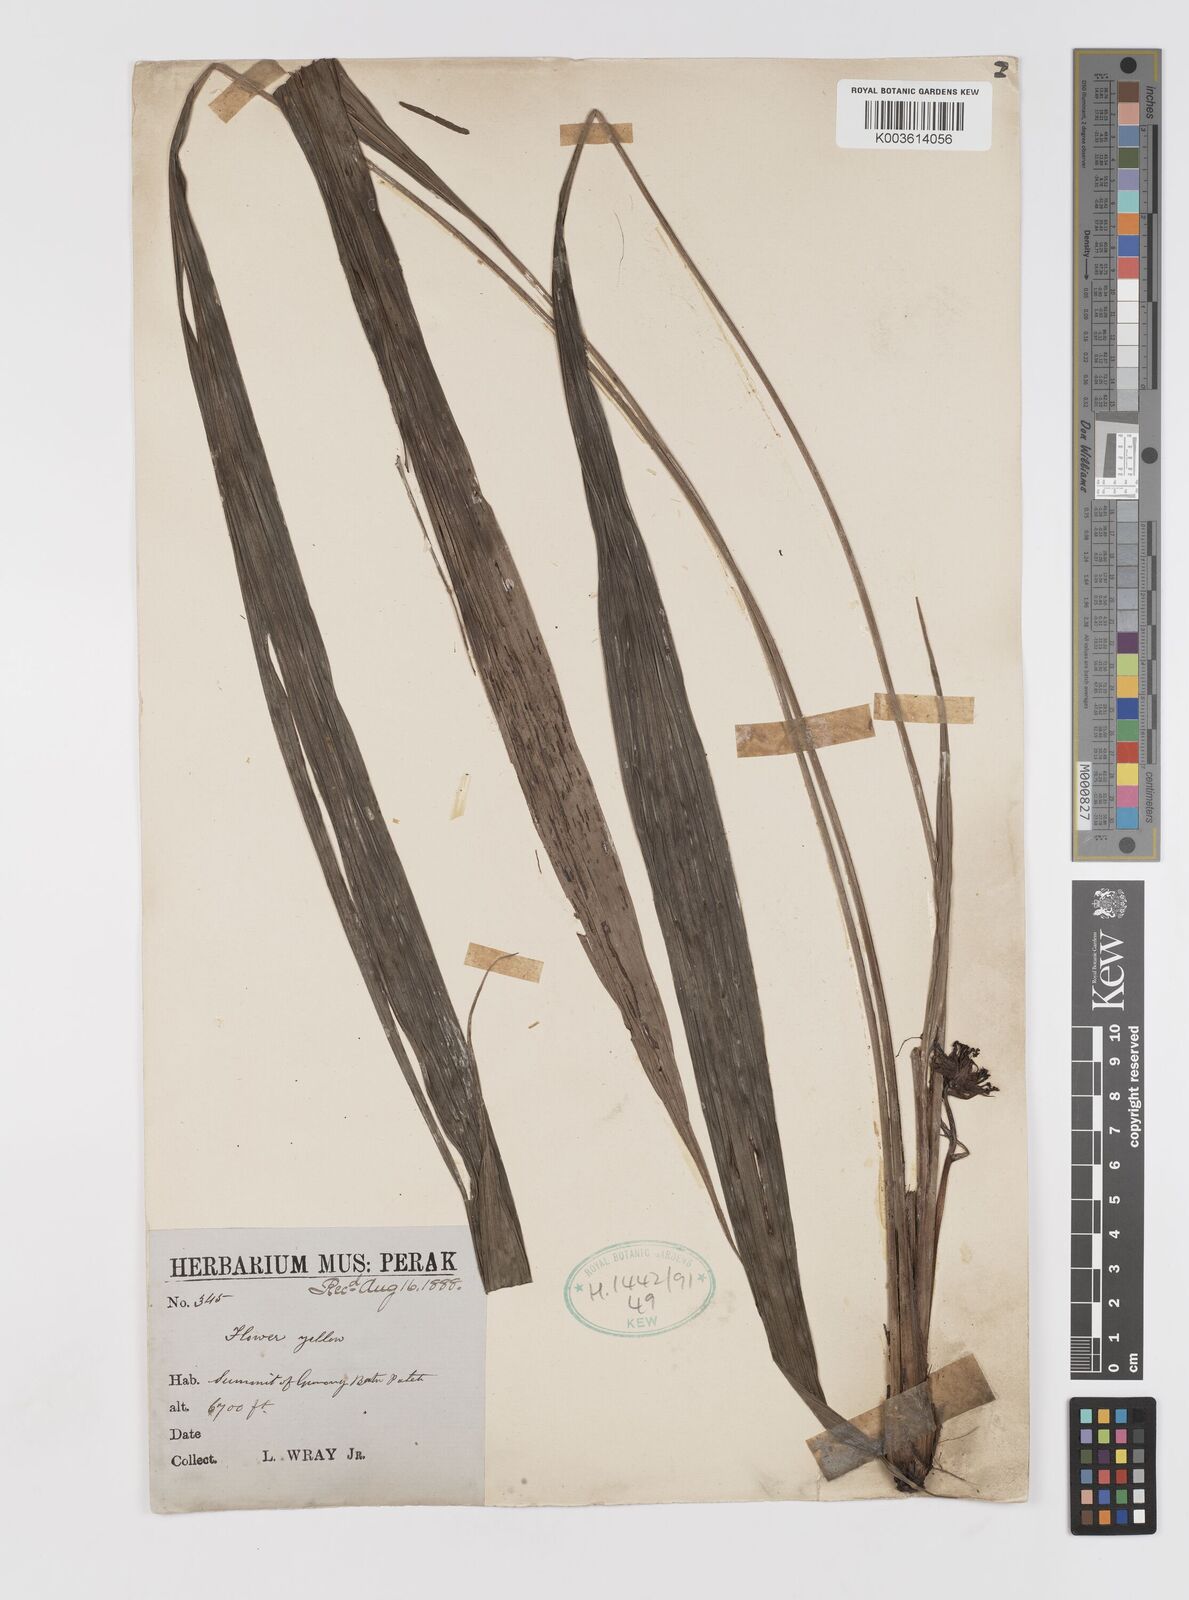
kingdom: Plantae
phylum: Tracheophyta
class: Liliopsida
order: Asparagales
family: Hypoxidaceae
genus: Curculigo
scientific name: Curculigo latifolia
